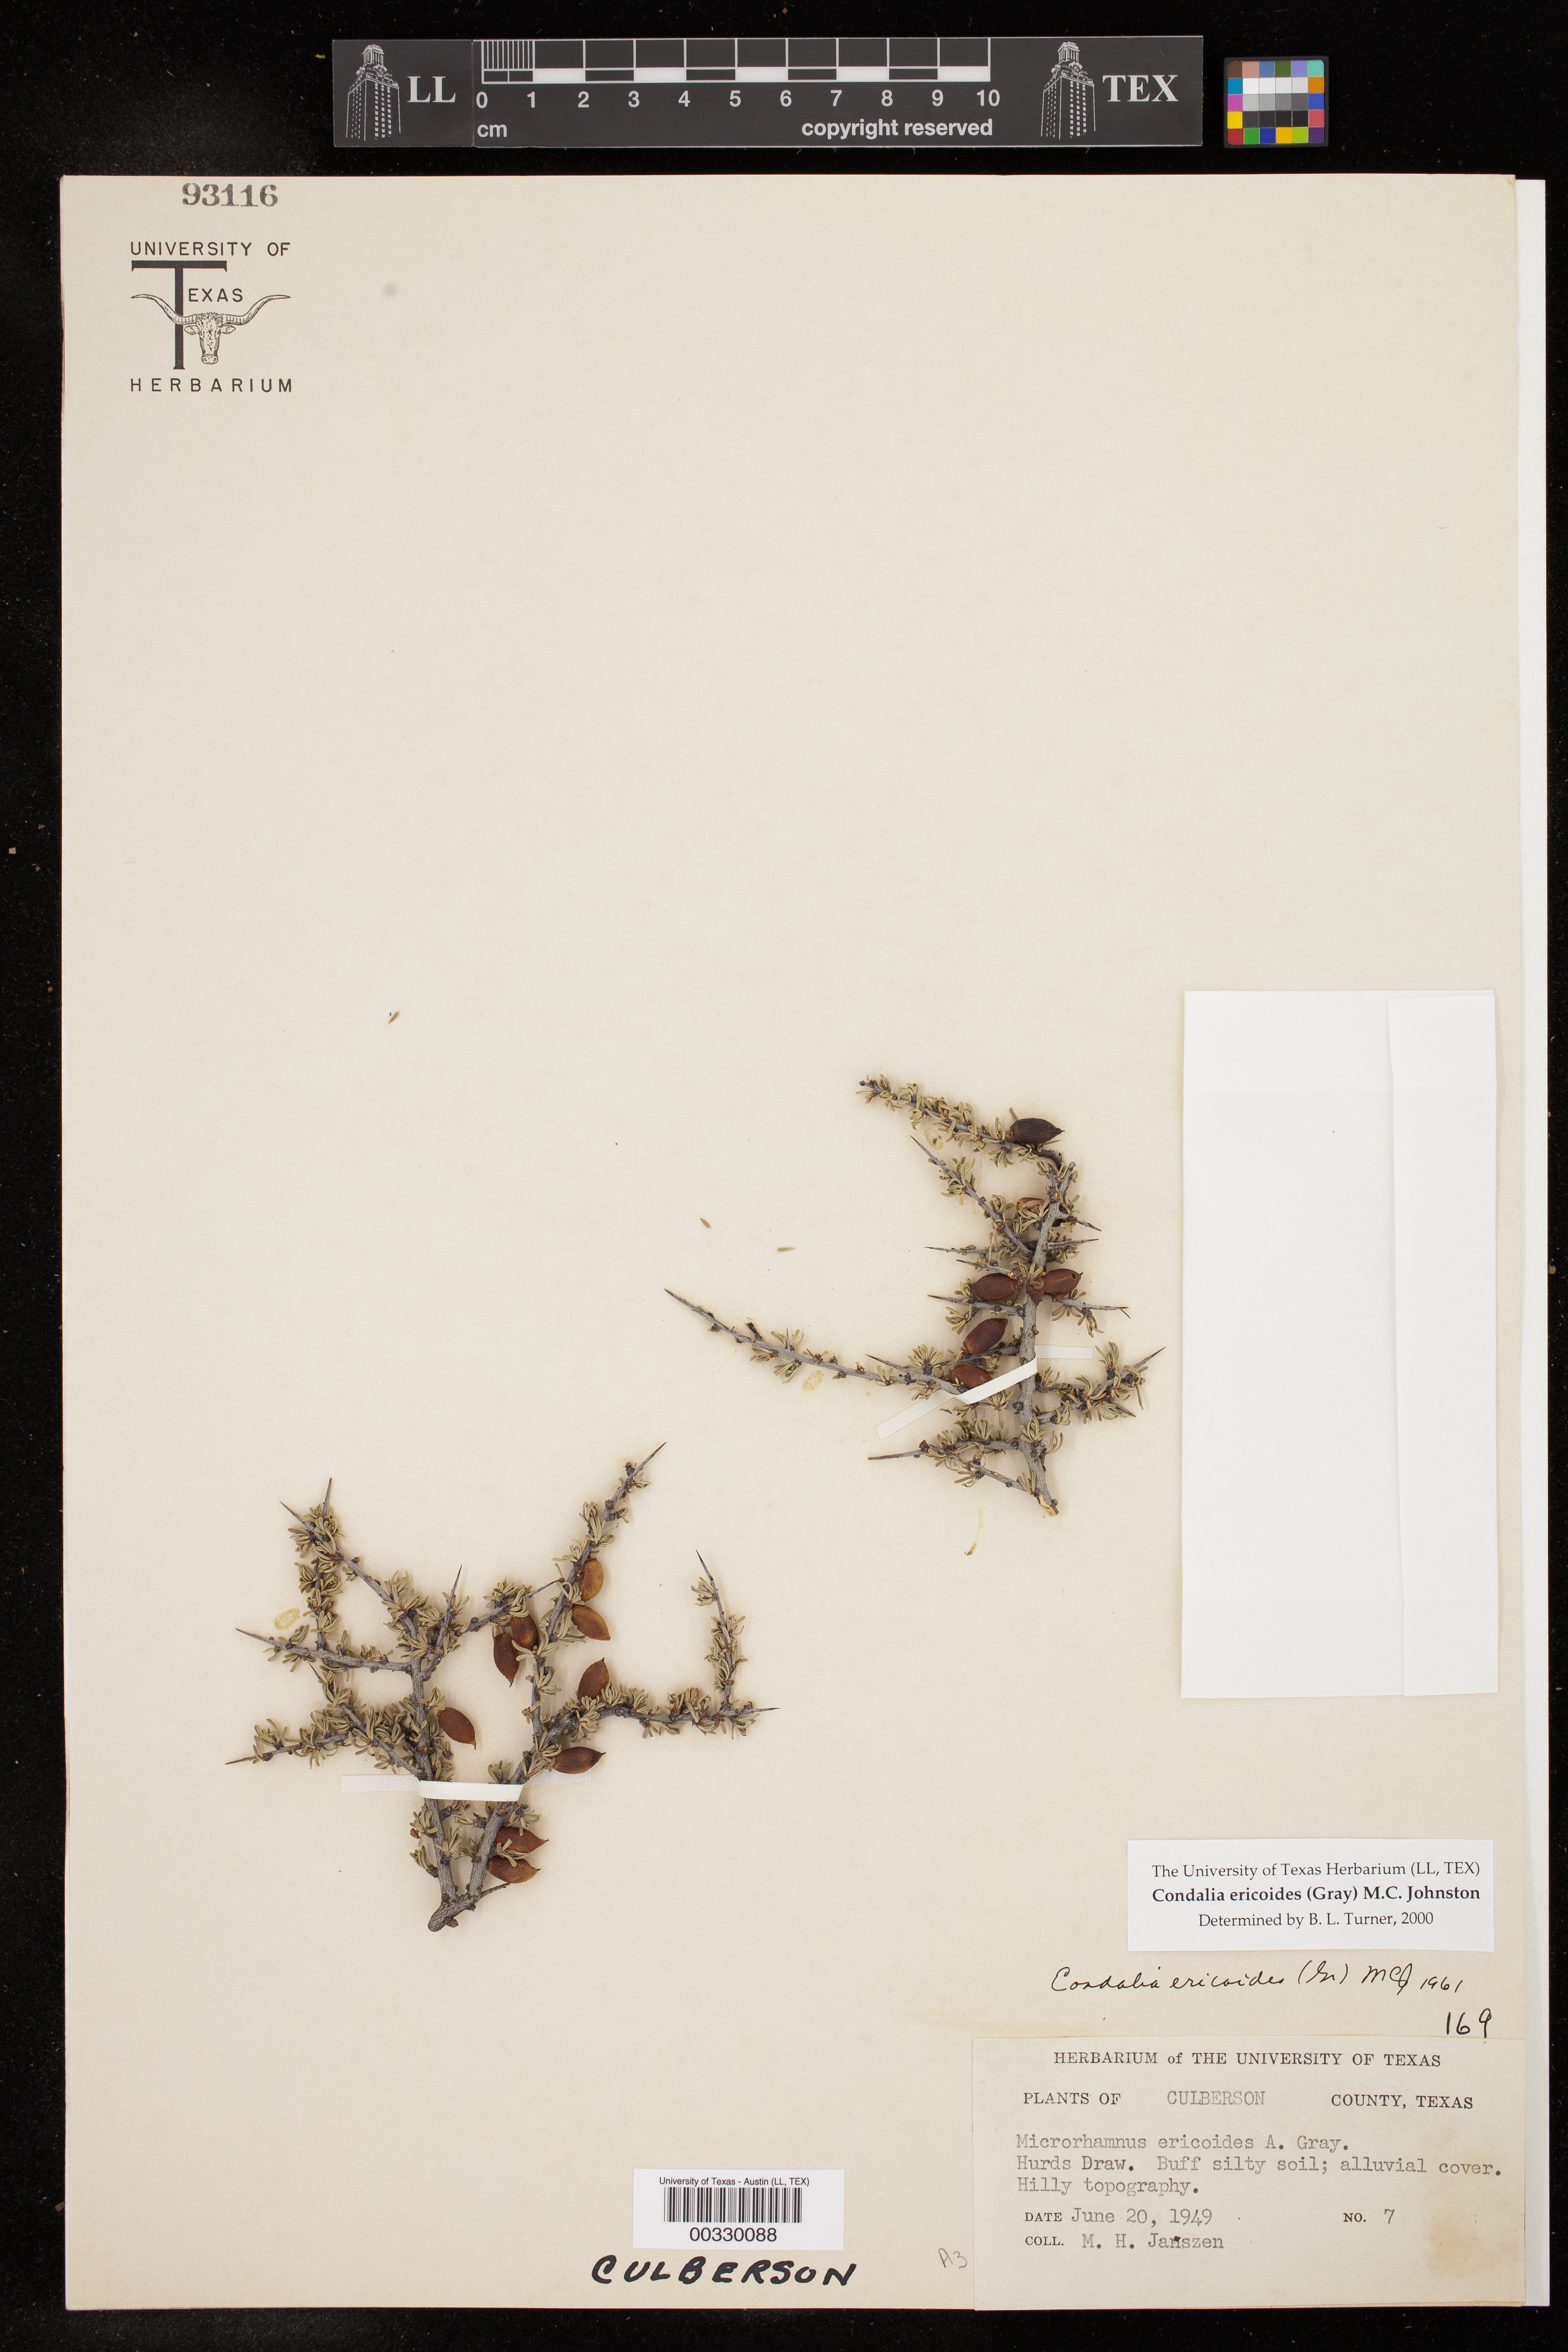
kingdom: Plantae
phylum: Tracheophyta
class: Magnoliopsida
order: Rosales
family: Rhamnaceae
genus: Condalia
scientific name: Condalia ericoides
